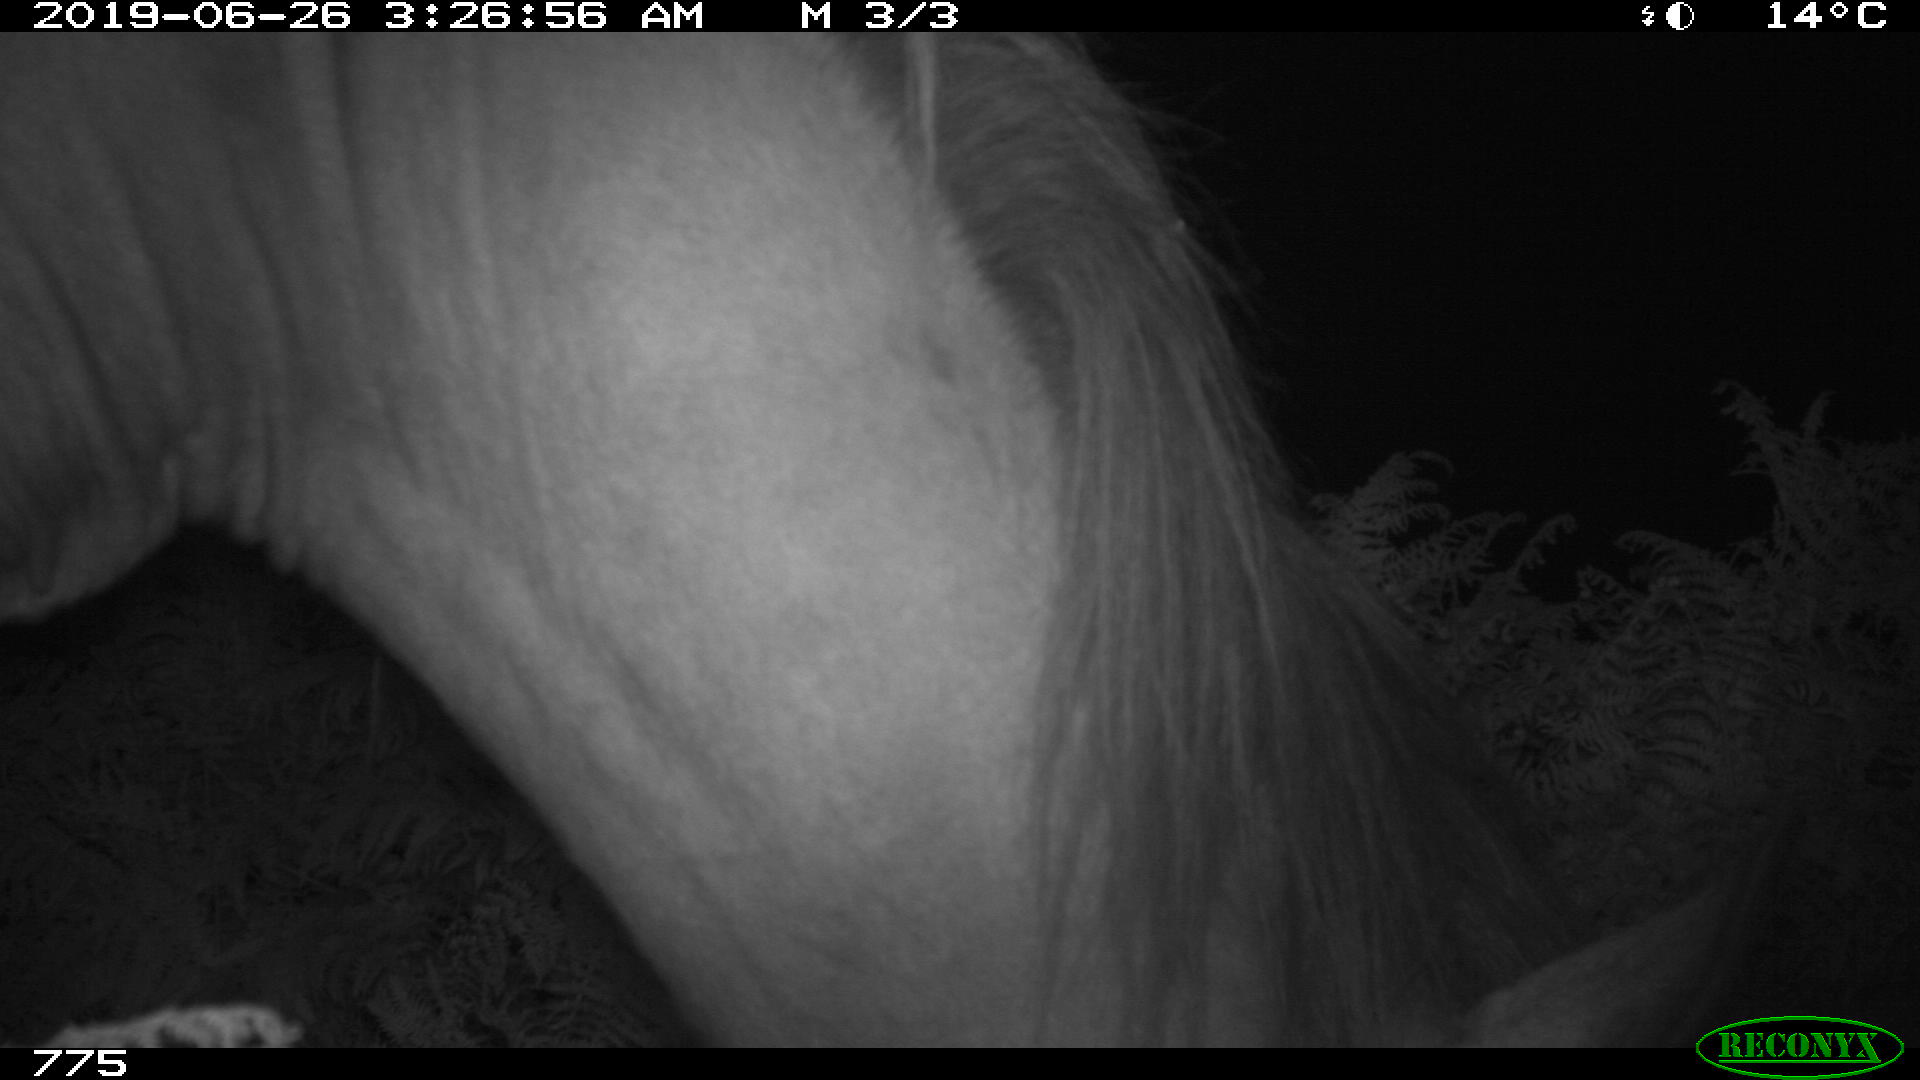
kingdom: Animalia
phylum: Chordata
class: Mammalia
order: Perissodactyla
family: Equidae
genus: Equus
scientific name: Equus caballus
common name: Horse
